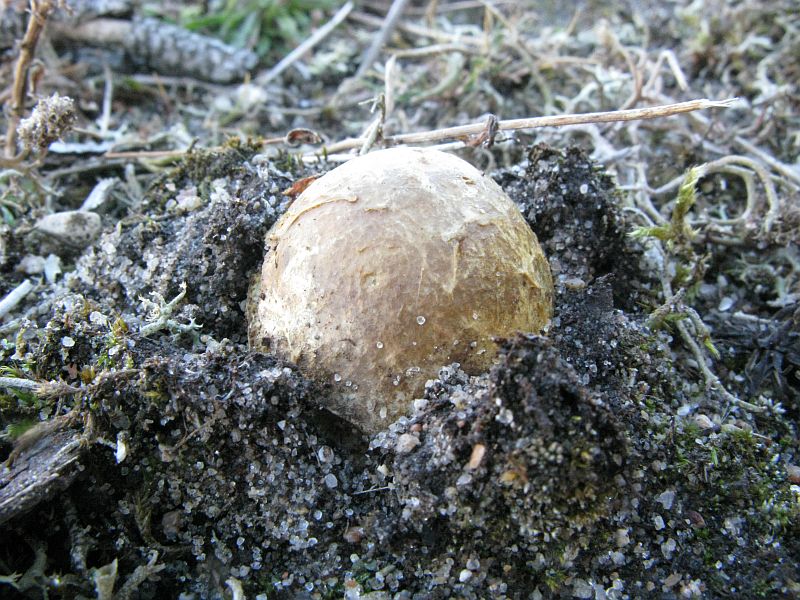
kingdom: Fungi
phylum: Basidiomycota
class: Agaricomycetes
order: Boletales
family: Rhizopogonaceae
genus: Rhizopogon
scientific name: Rhizopogon
